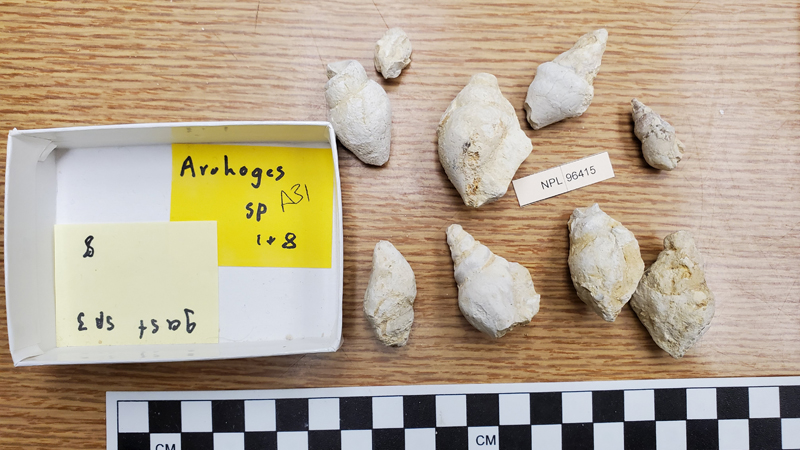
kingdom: Animalia
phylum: Mollusca
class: Gastropoda
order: Littorinimorpha
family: Aporrhaidae
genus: Arrhoges
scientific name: Arrhoges
